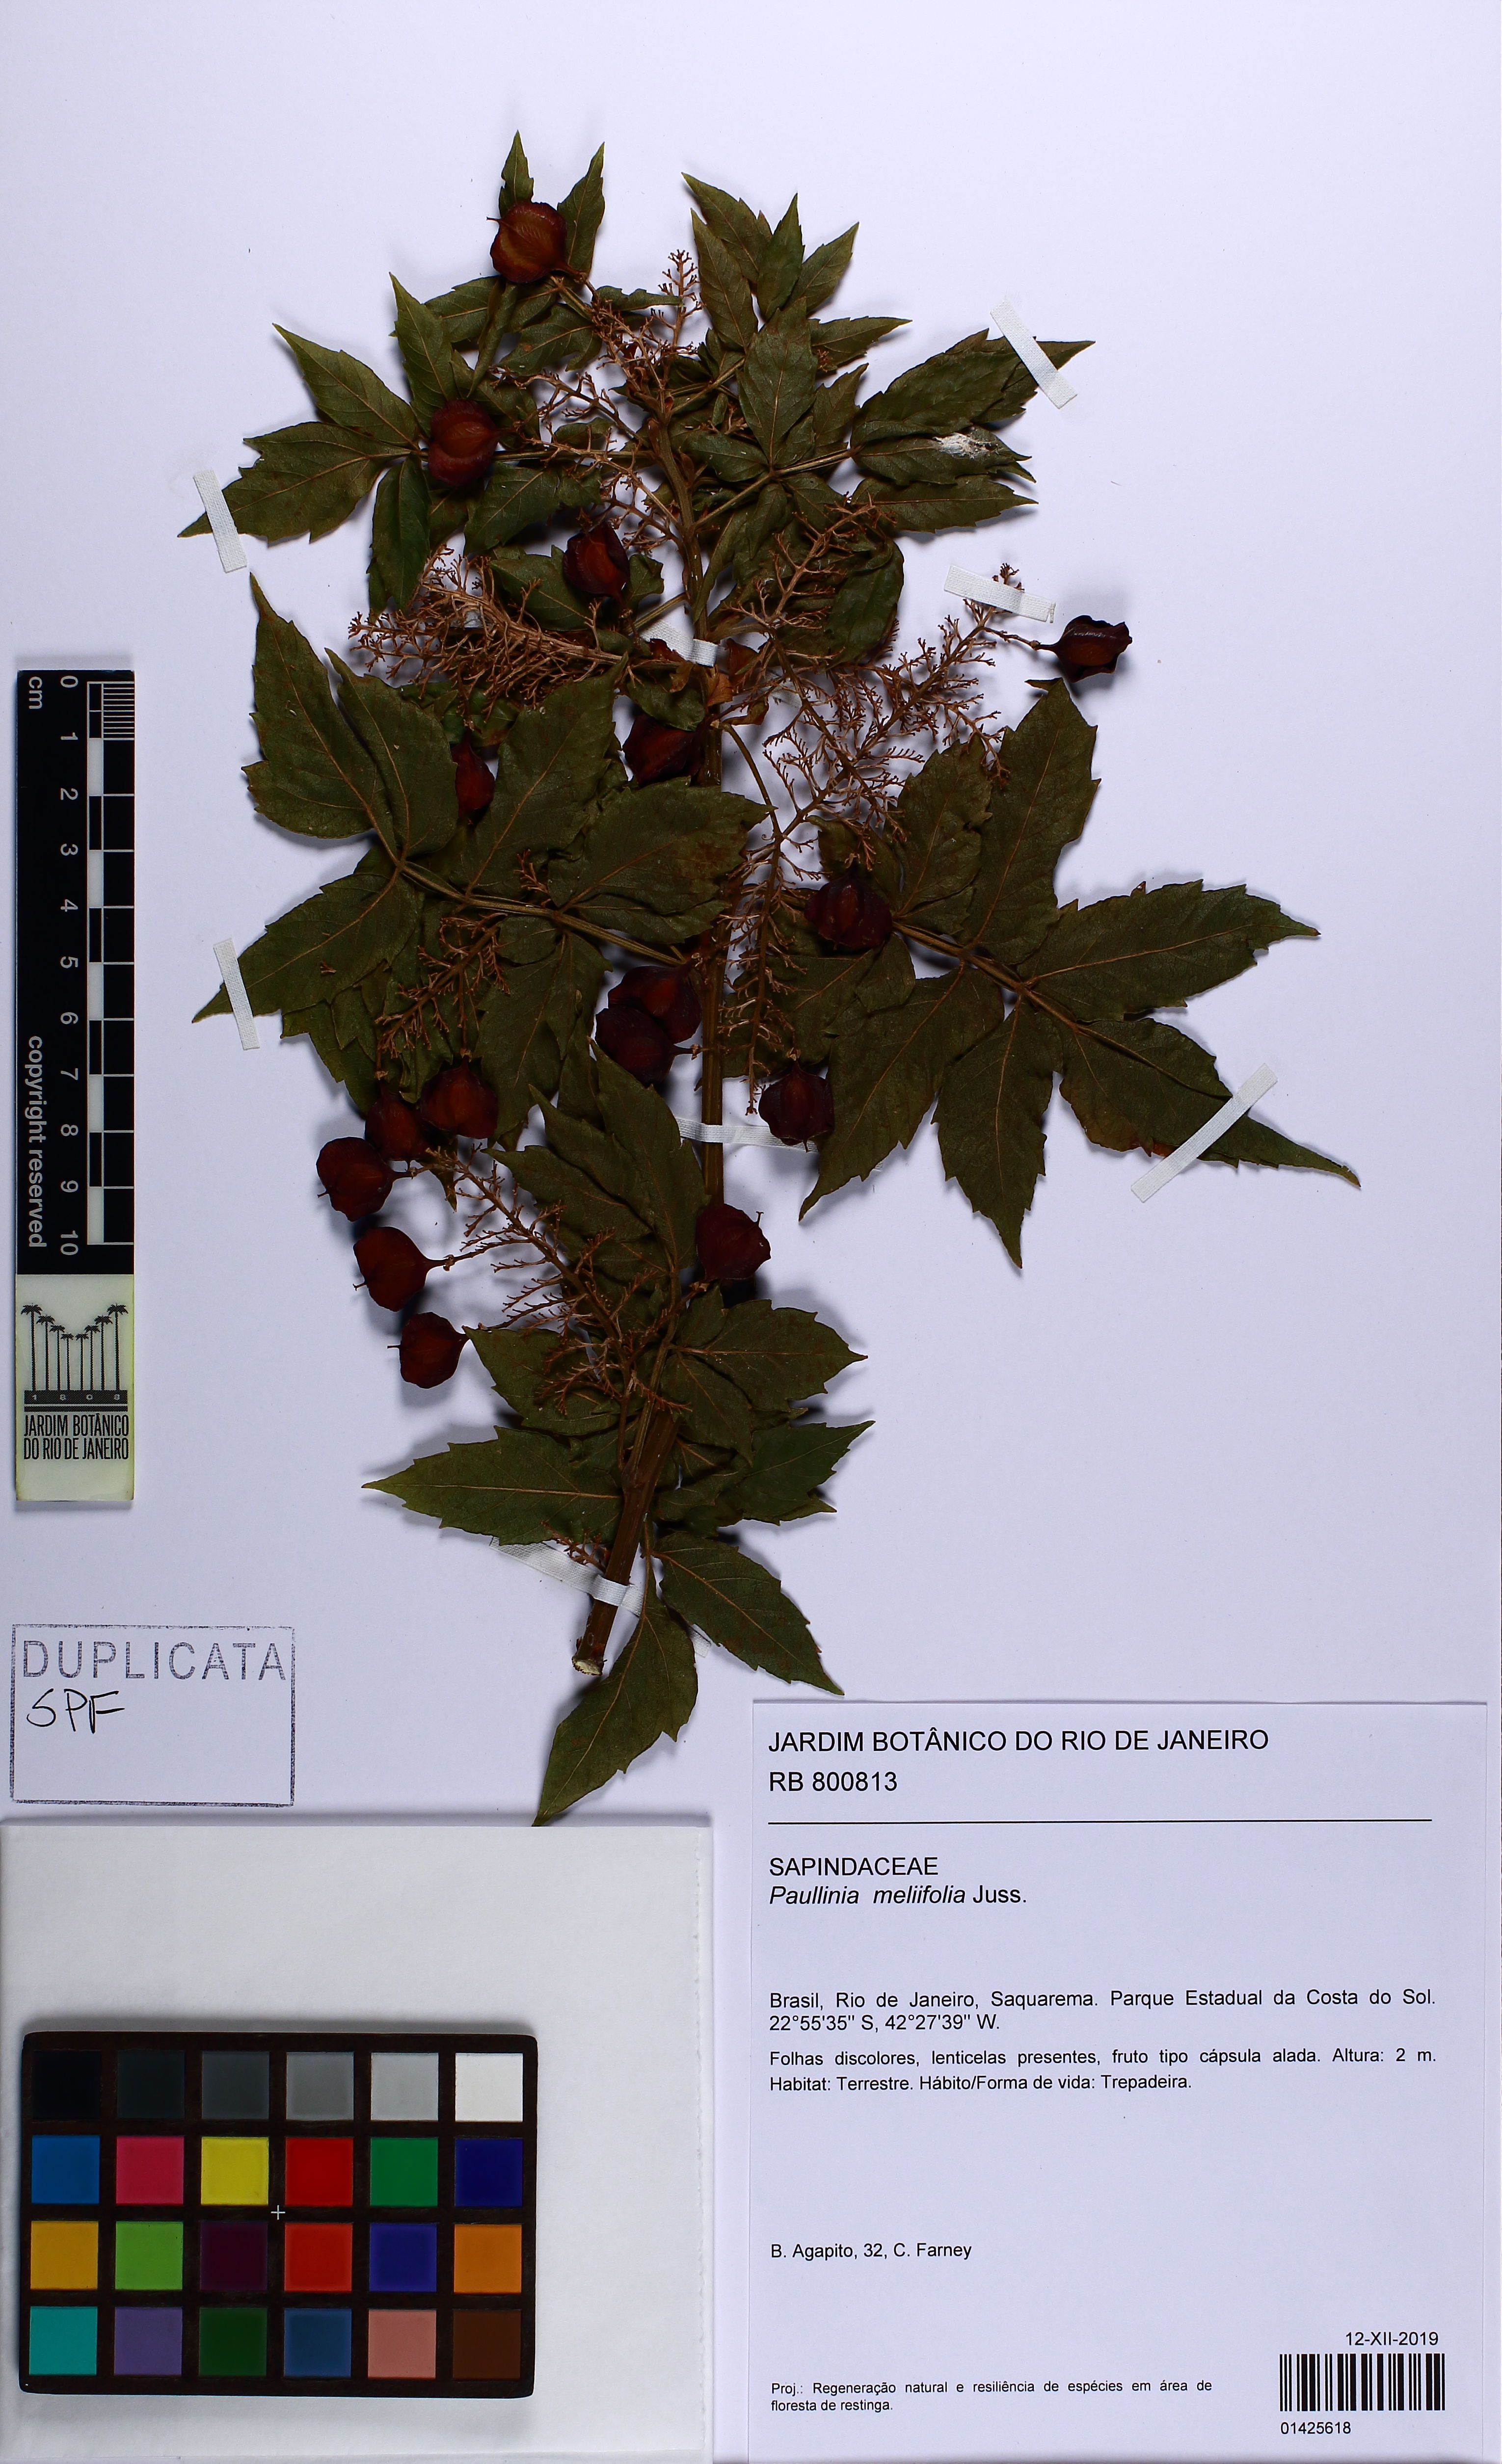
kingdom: Plantae
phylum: Tracheophyta
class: Magnoliopsida
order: Sapindales
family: Sapindaceae
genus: Paullinia
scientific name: Paullinia meliifolia
